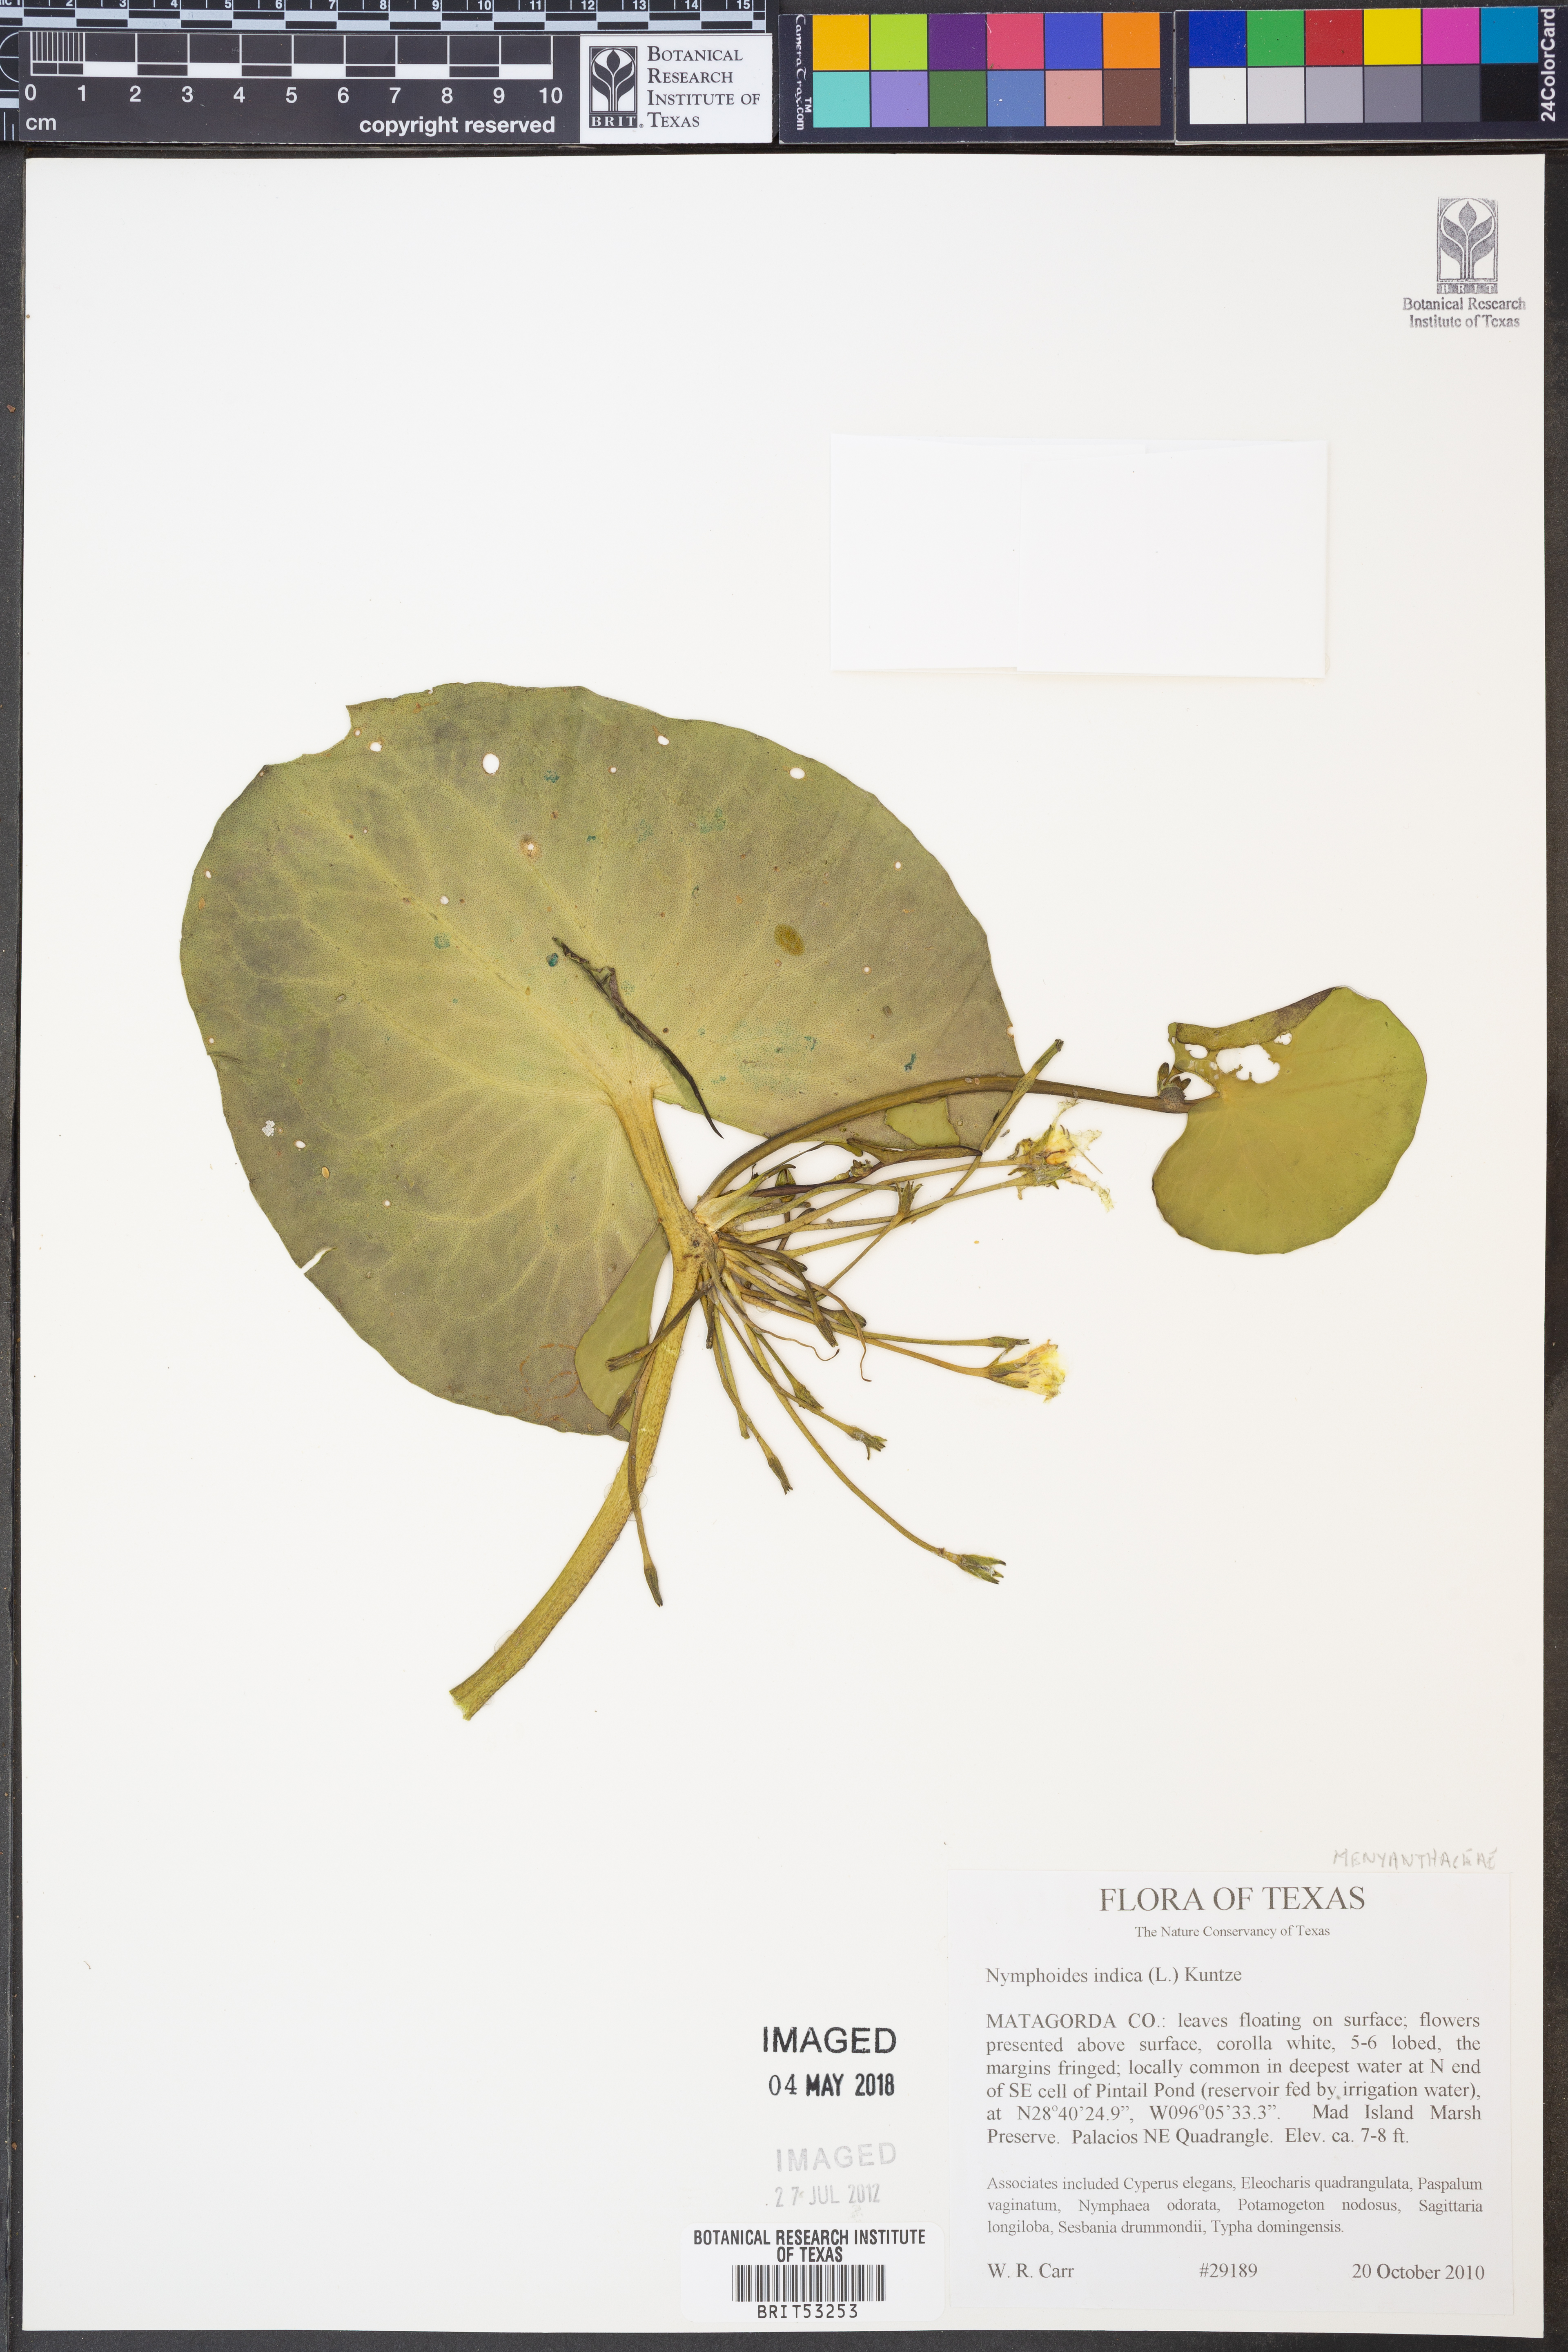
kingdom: Plantae
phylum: Tracheophyta
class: Magnoliopsida
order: Asterales
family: Menyanthaceae
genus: Nymphoides
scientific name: Nymphoides indica
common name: Water-snowflake
